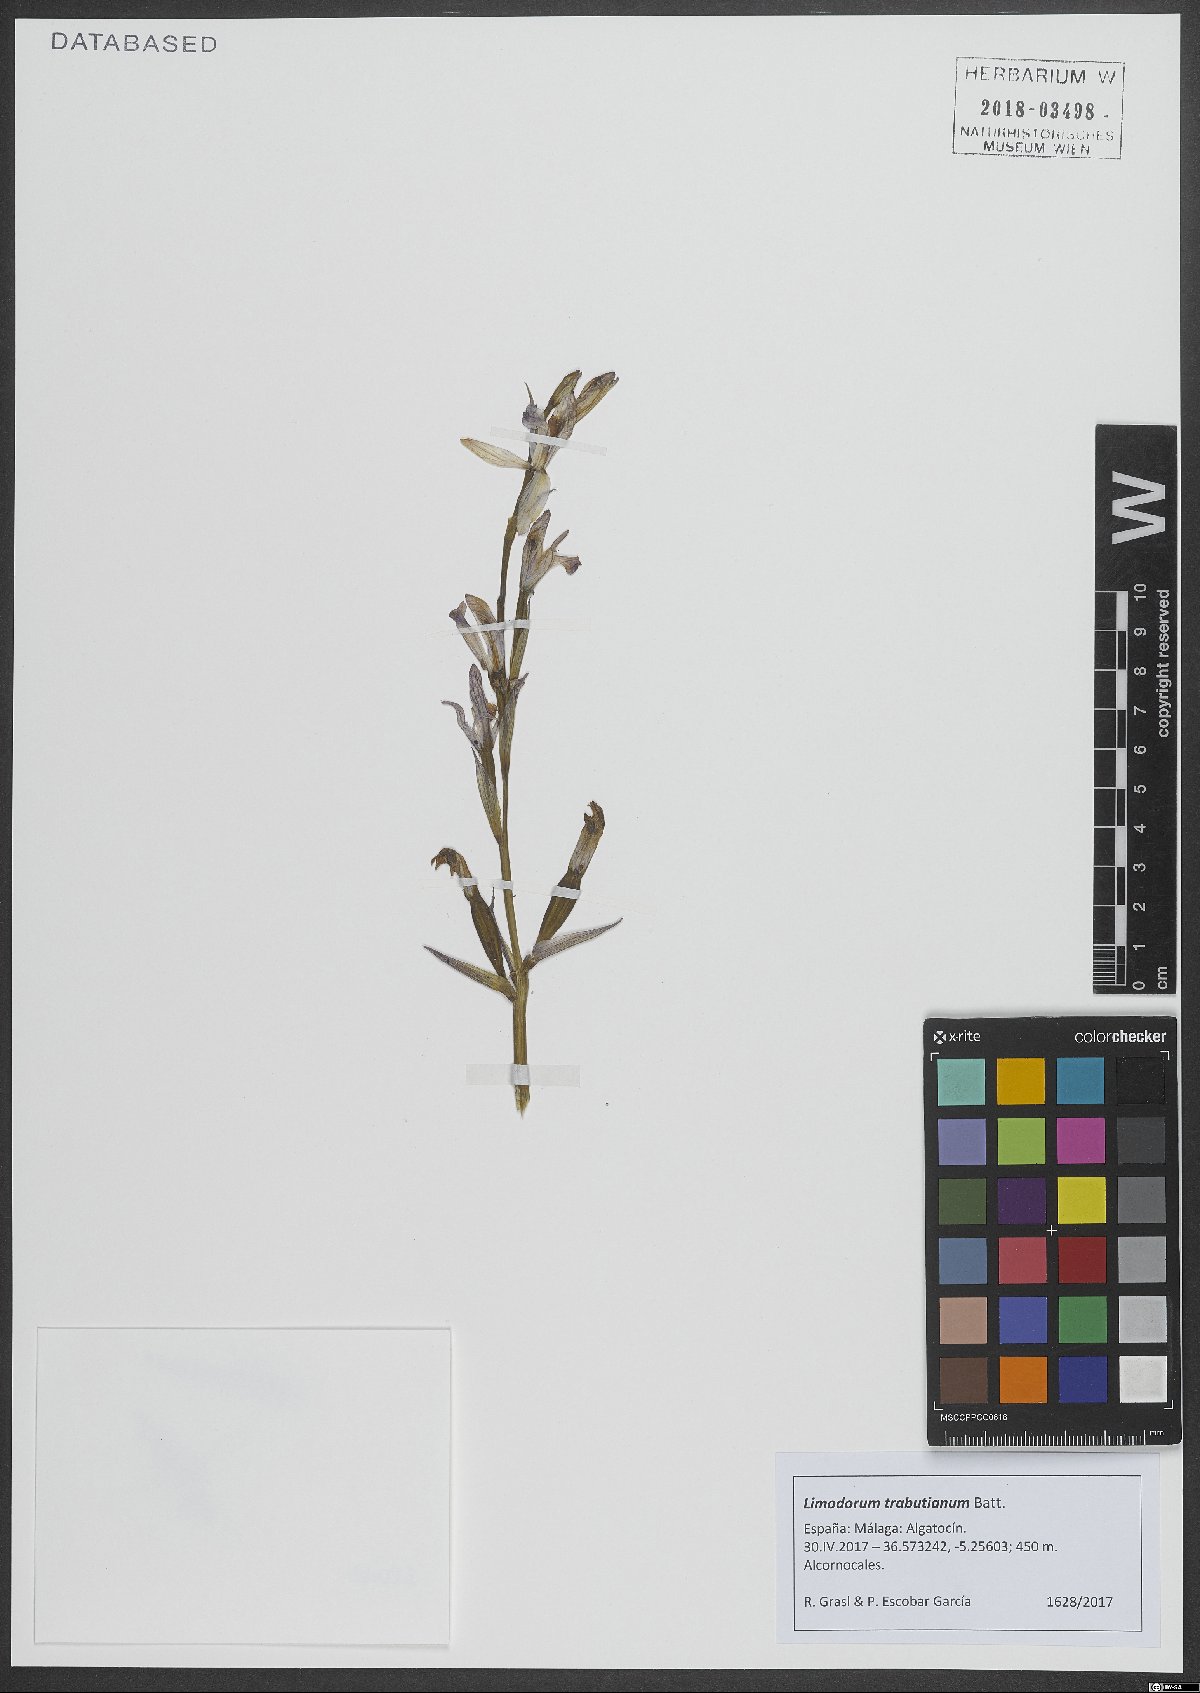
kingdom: Plantae
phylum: Tracheophyta
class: Liliopsida
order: Asparagales
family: Orchidaceae
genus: Limodorum
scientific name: Limodorum trabutianum
